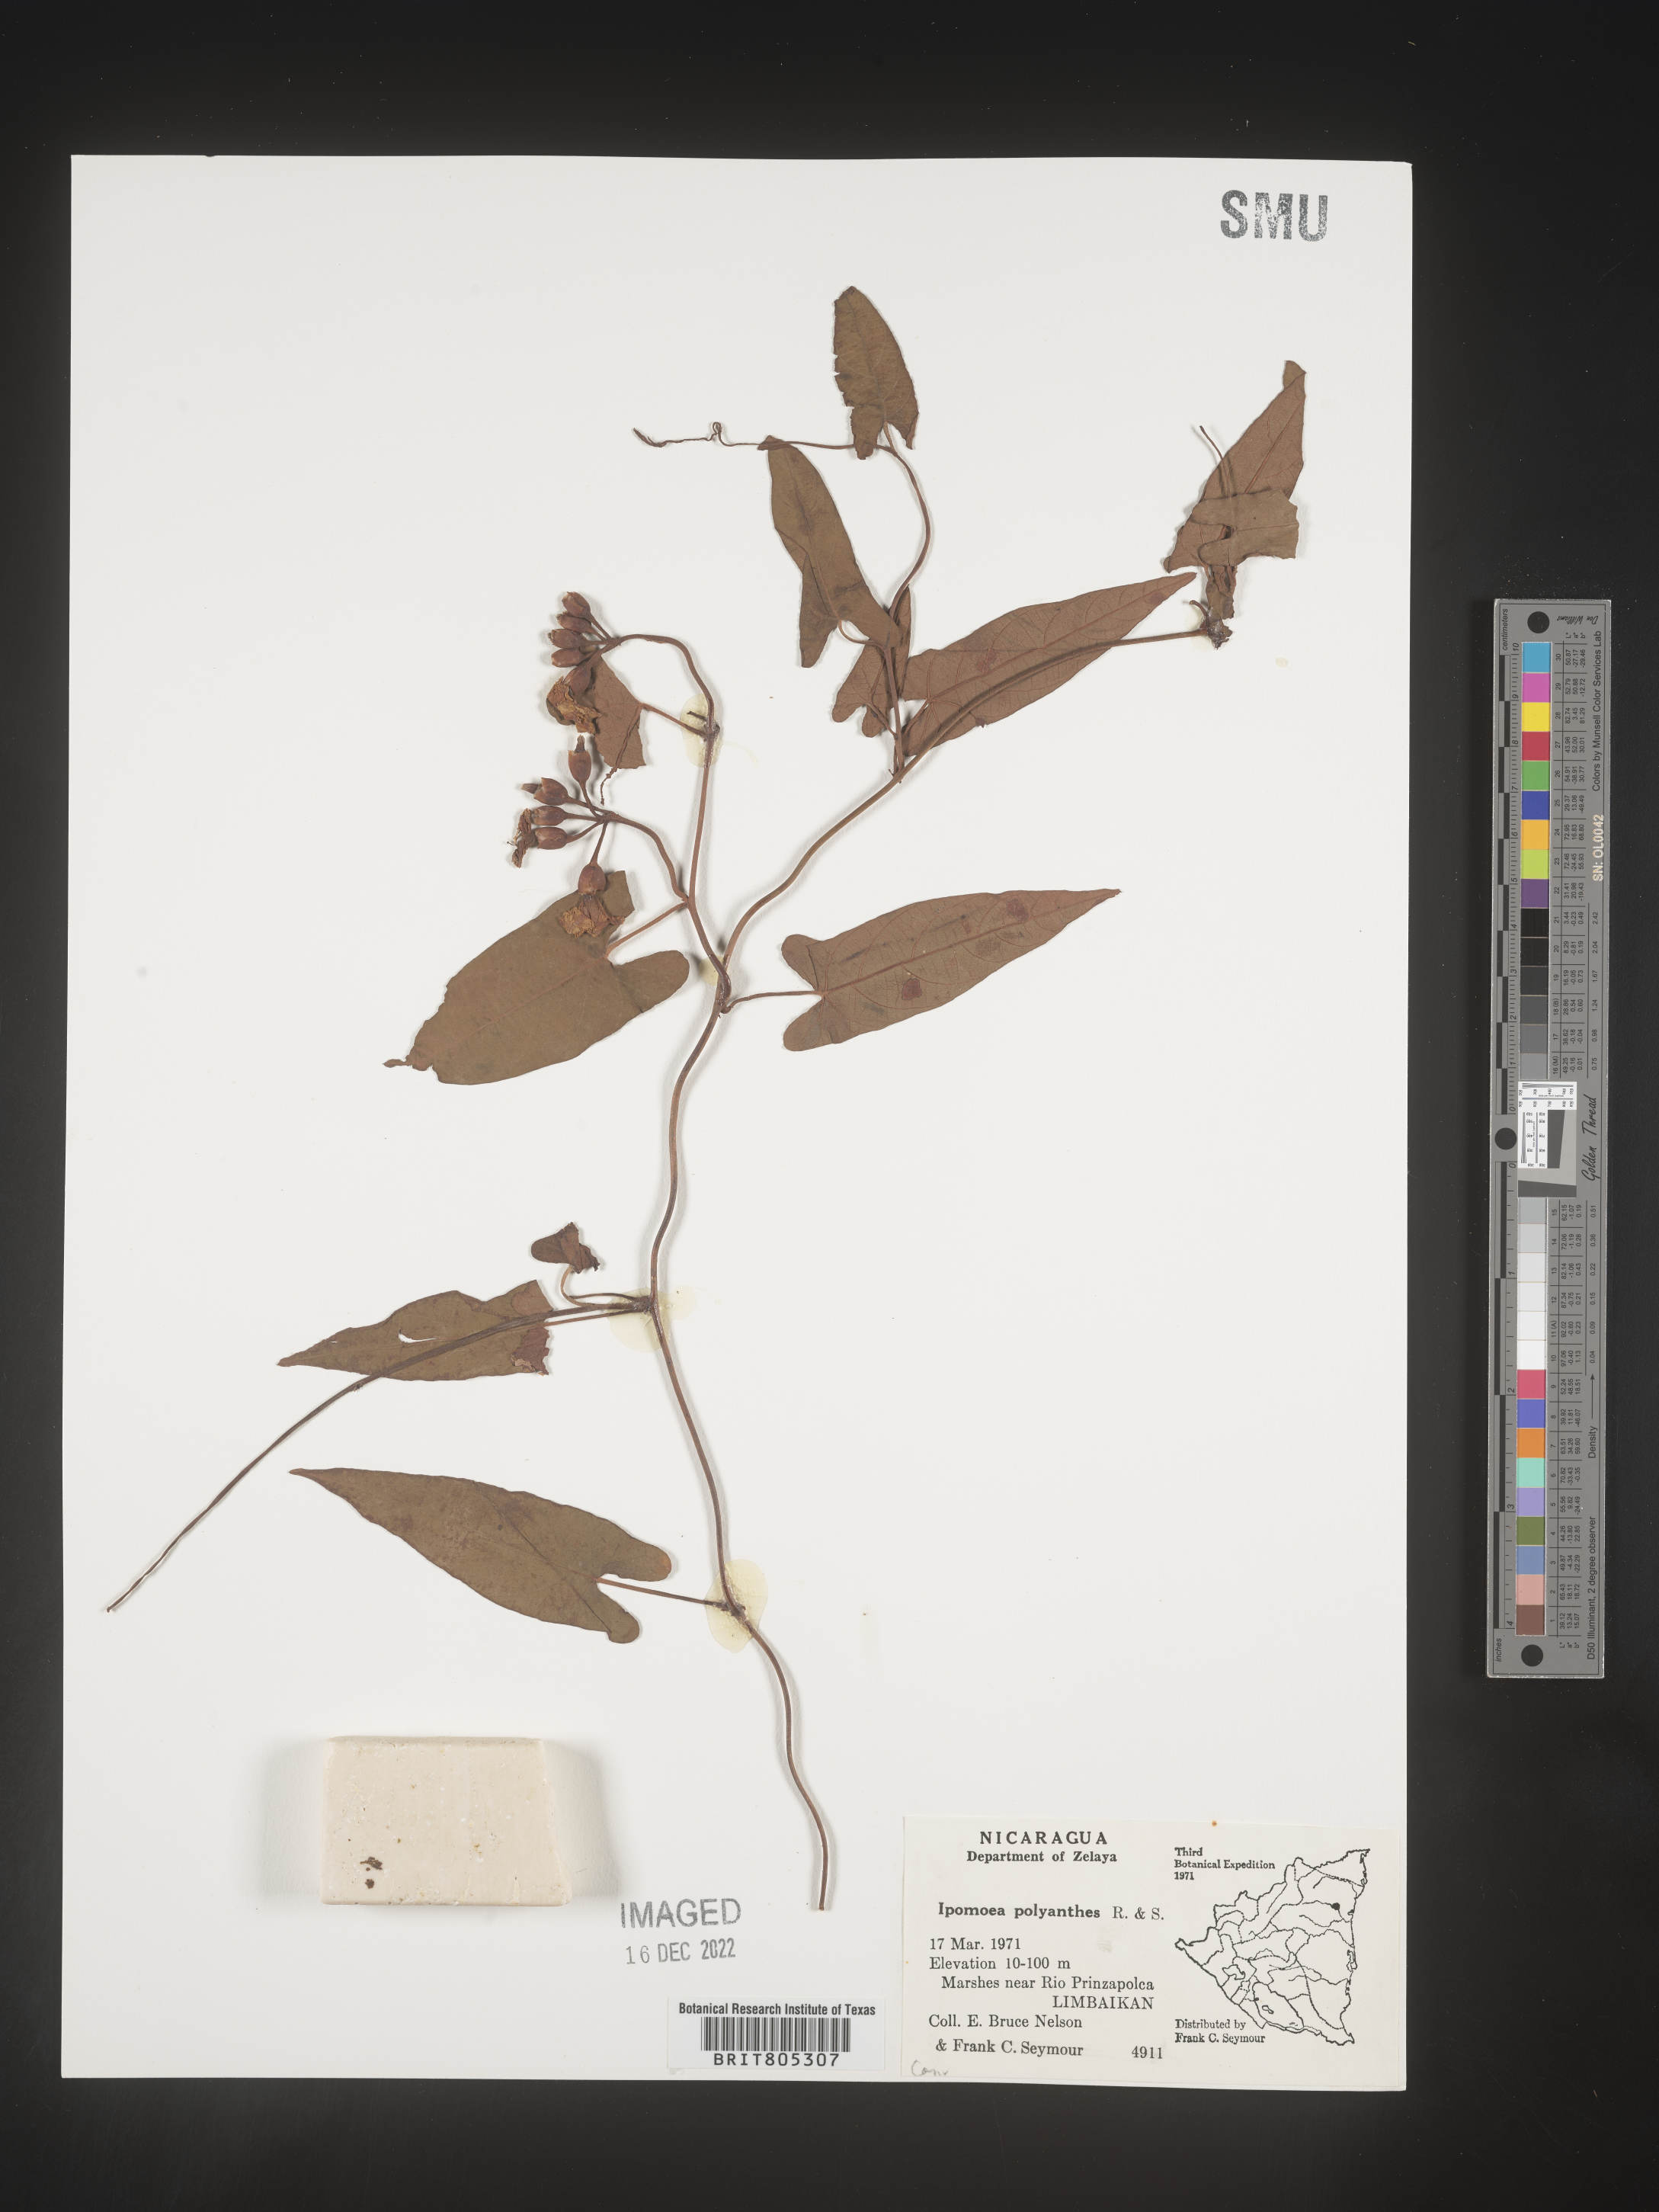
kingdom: Plantae
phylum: Tracheophyta
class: Magnoliopsida
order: Solanales
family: Convolvulaceae
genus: Ipomoea
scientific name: Ipomoea
